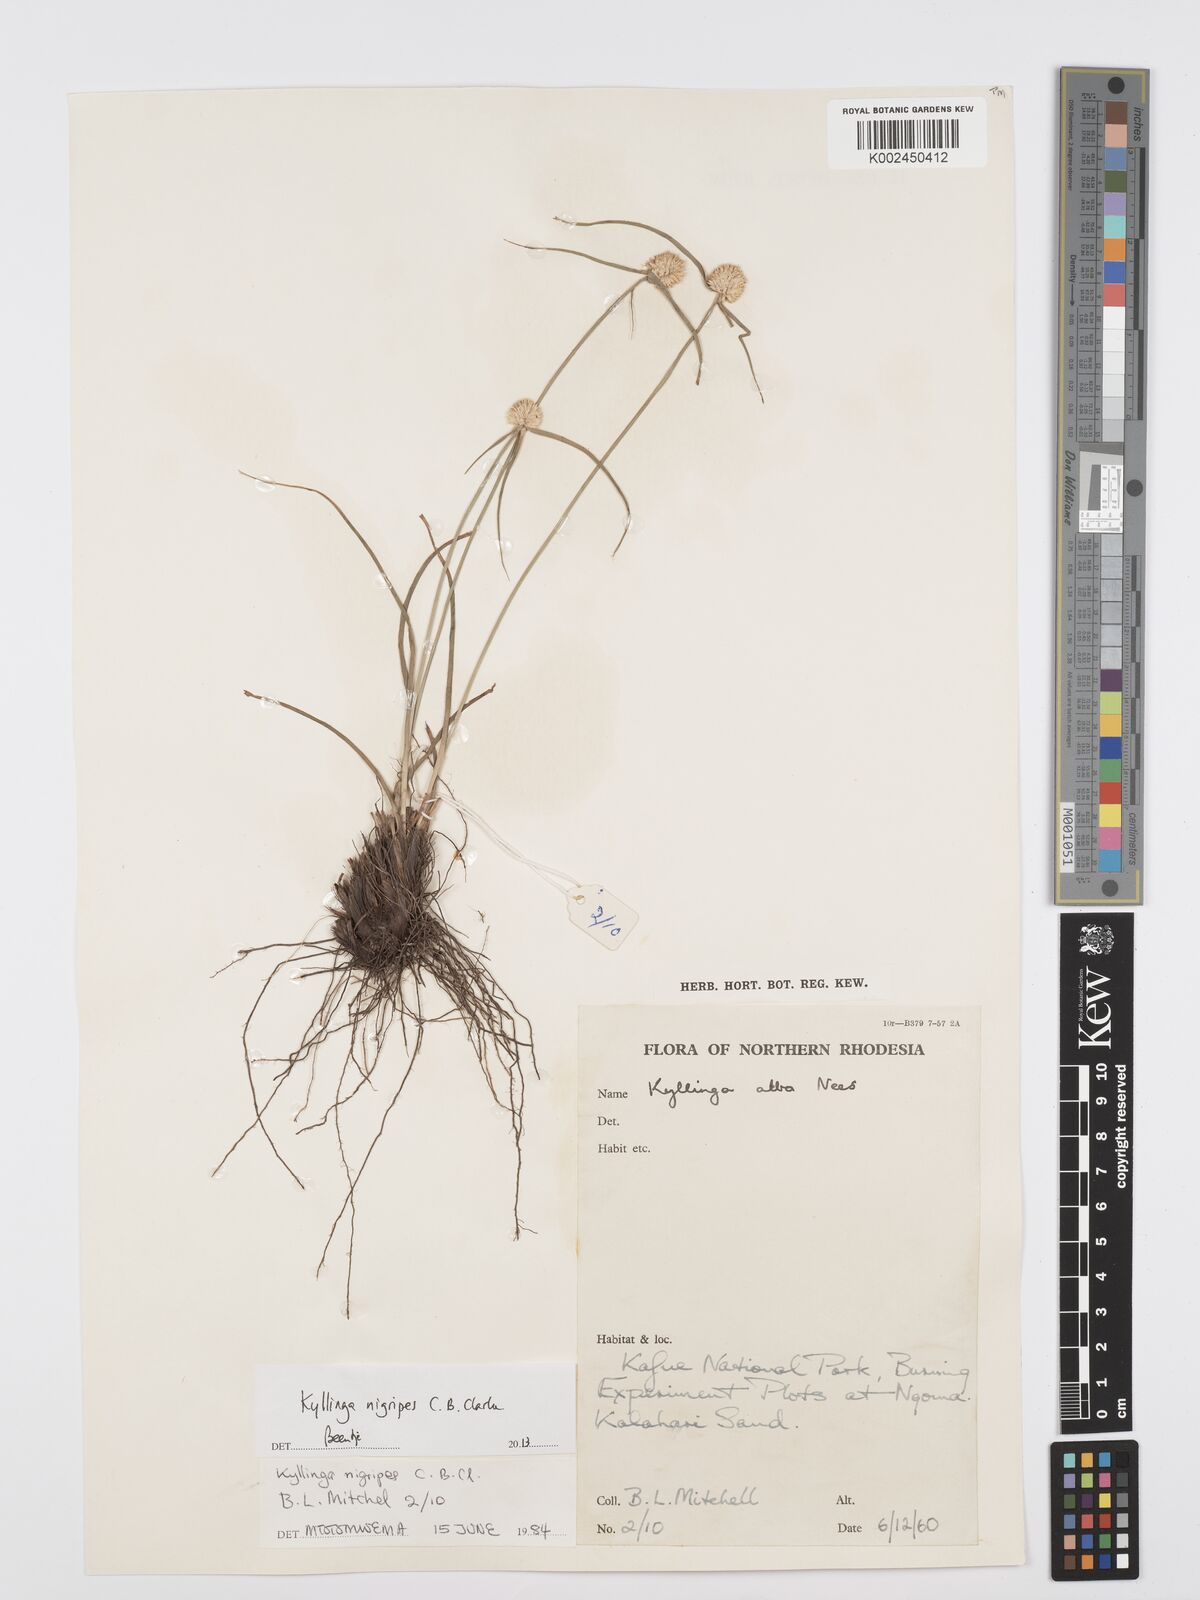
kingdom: Plantae
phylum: Tracheophyta
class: Liliopsida
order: Poales
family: Cyperaceae
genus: Cyperus
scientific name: Cyperus nigripes
